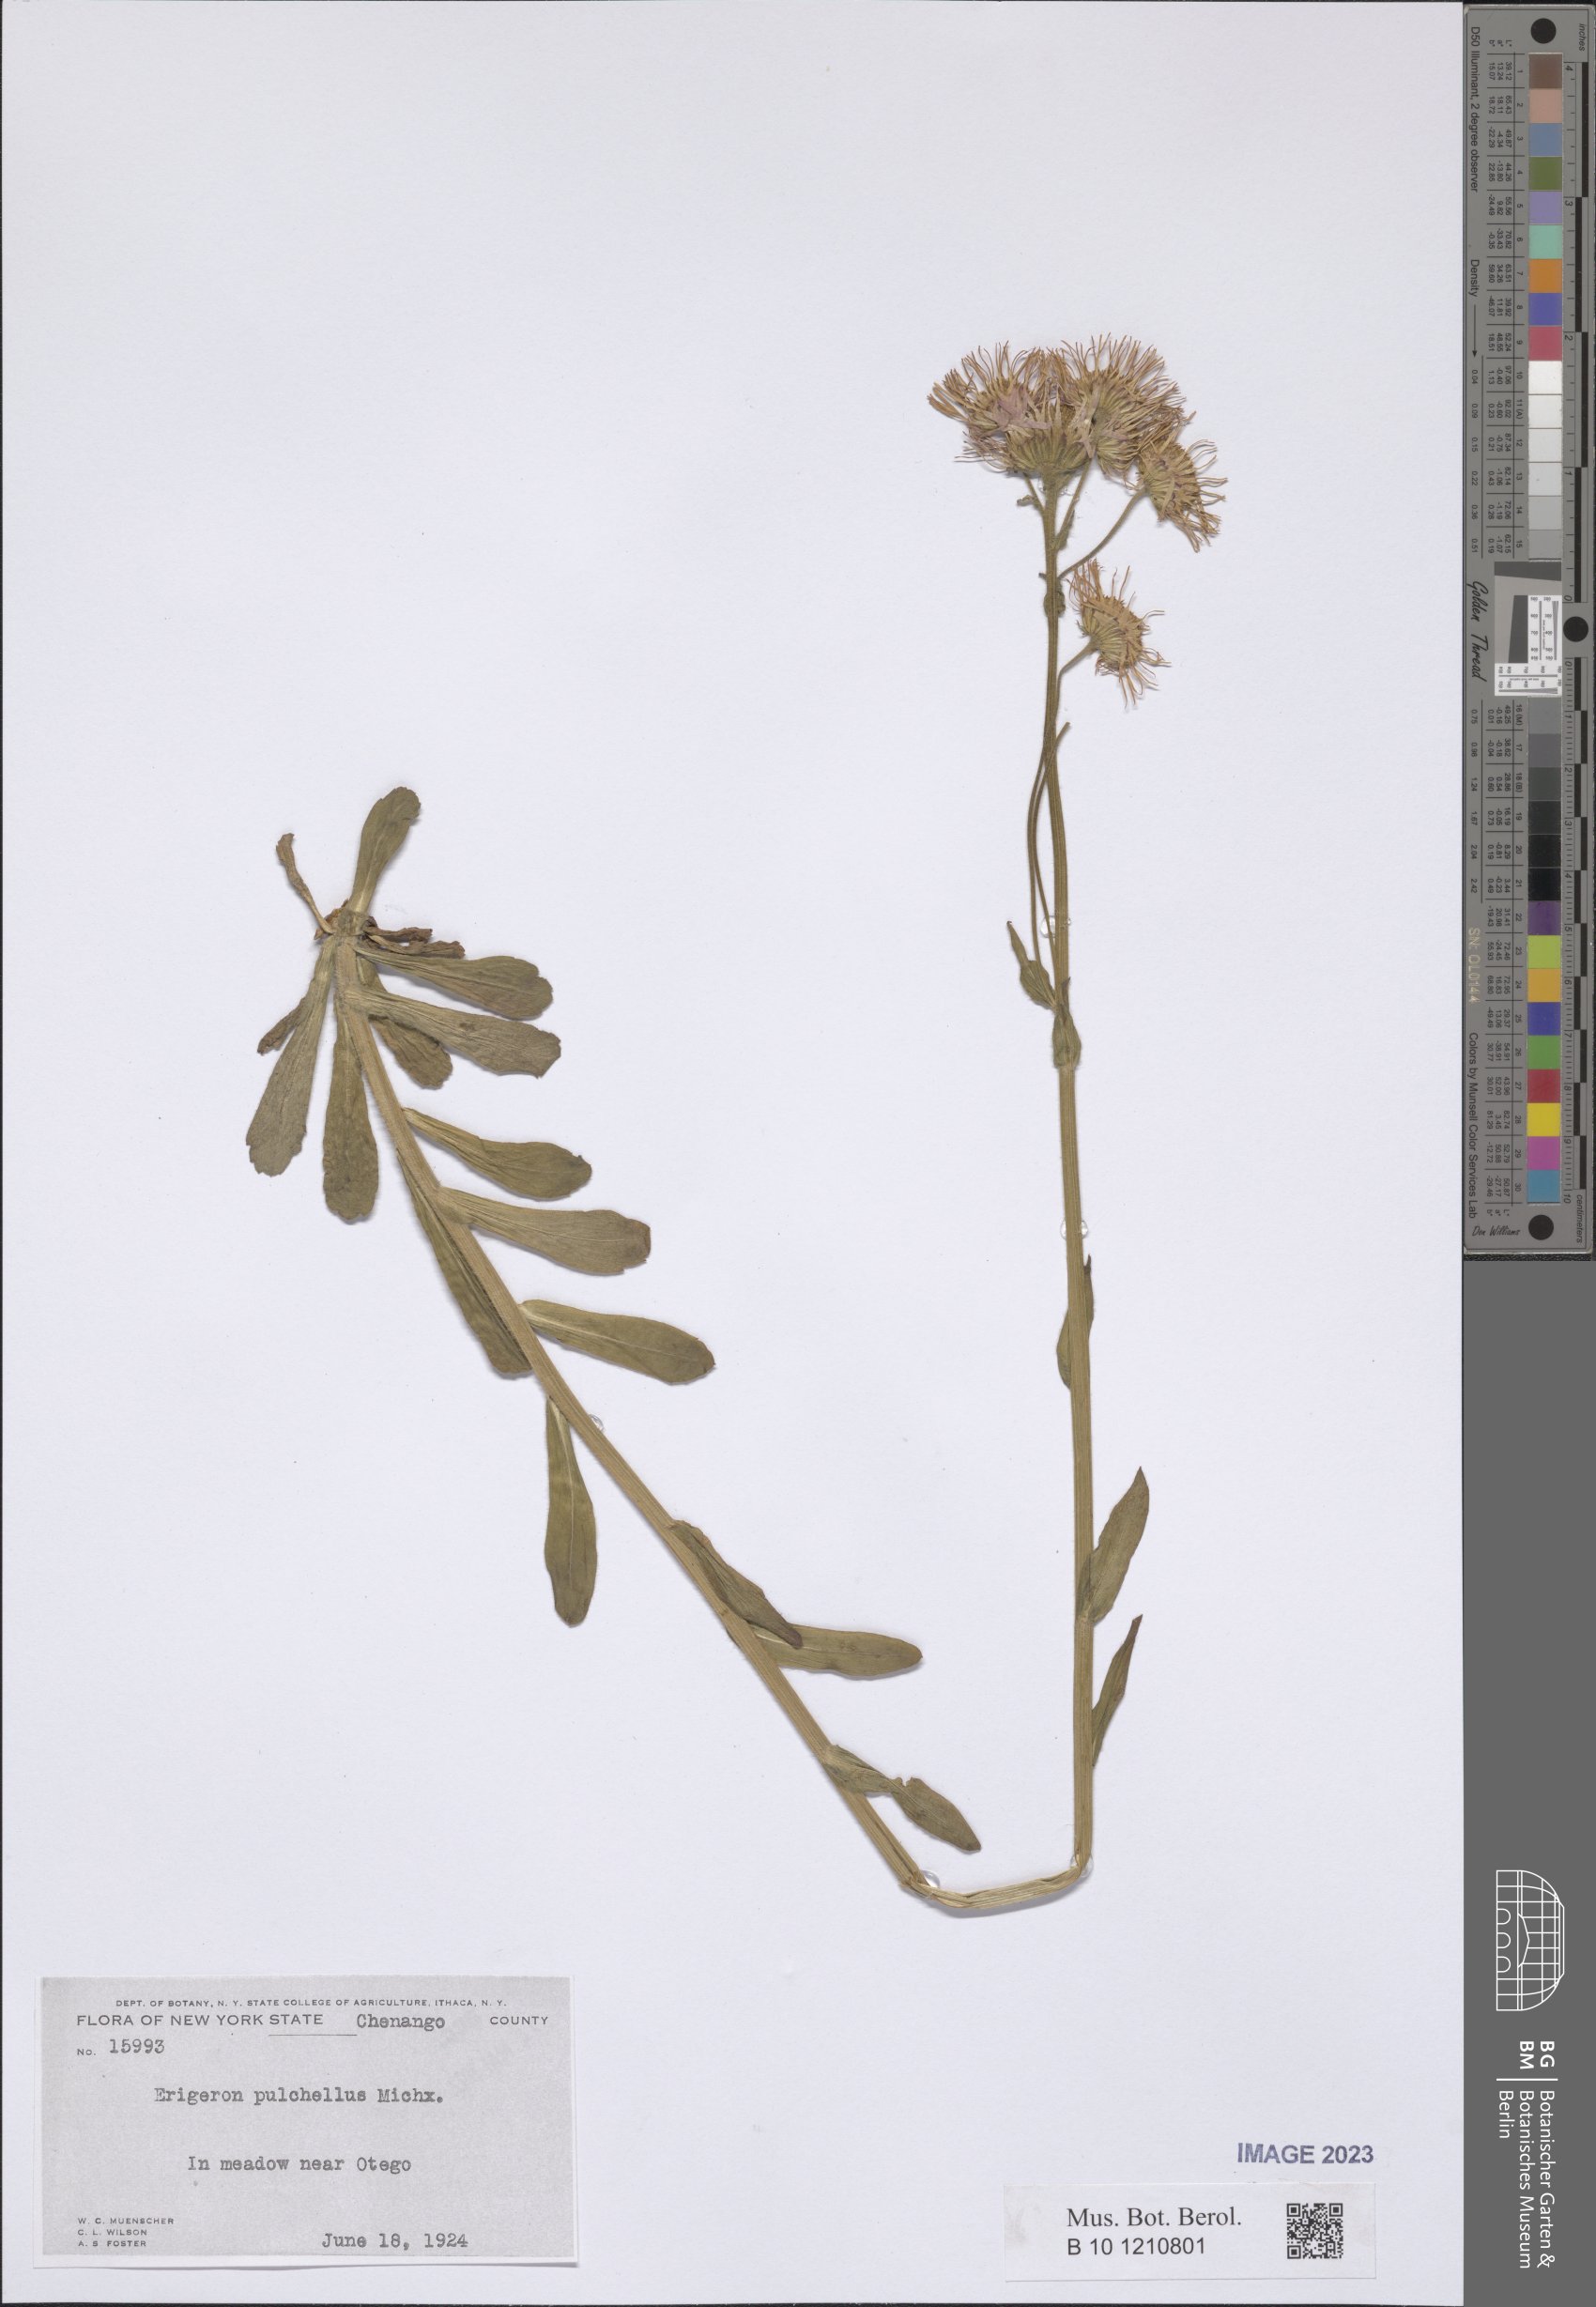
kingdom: Plantae
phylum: Tracheophyta
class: Magnoliopsida
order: Asterales
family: Asteraceae
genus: Erigeron
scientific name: Erigeron pulchellus
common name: Hairy fleabane
